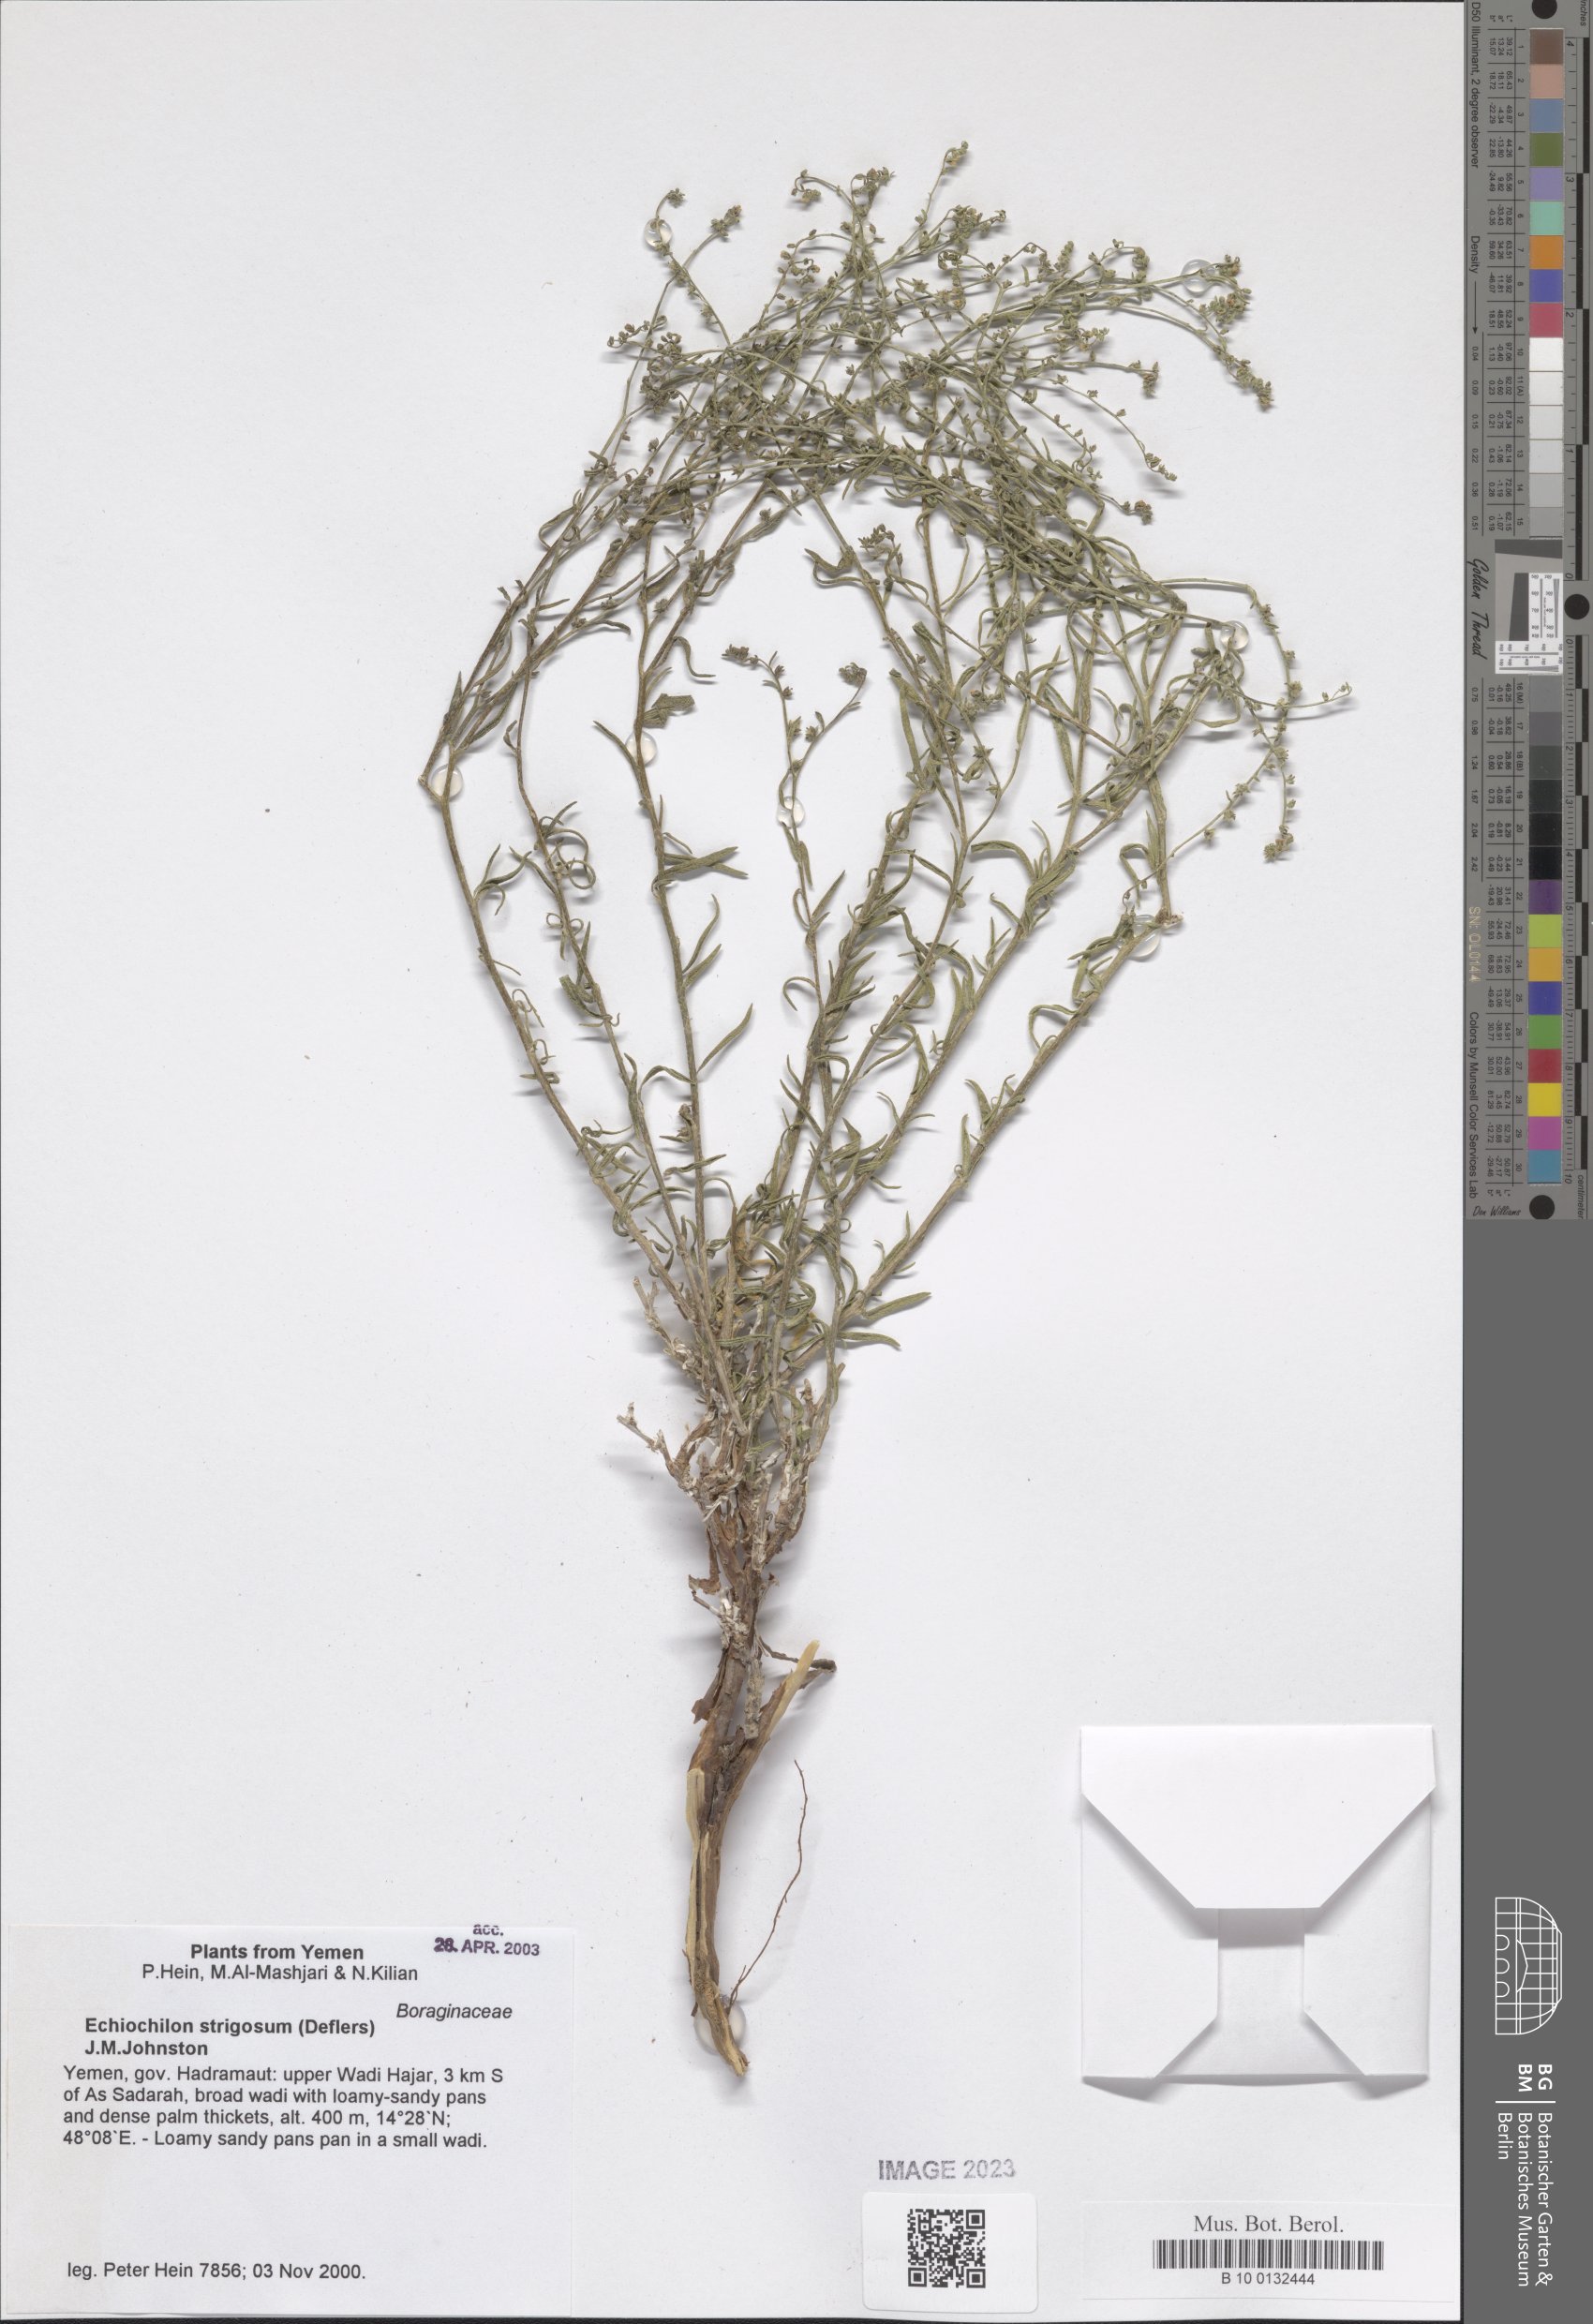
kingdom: Plantae
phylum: Tracheophyta
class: Magnoliopsida
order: Boraginales
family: Boraginaceae
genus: Echiochilon
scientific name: Echiochilon persicum
